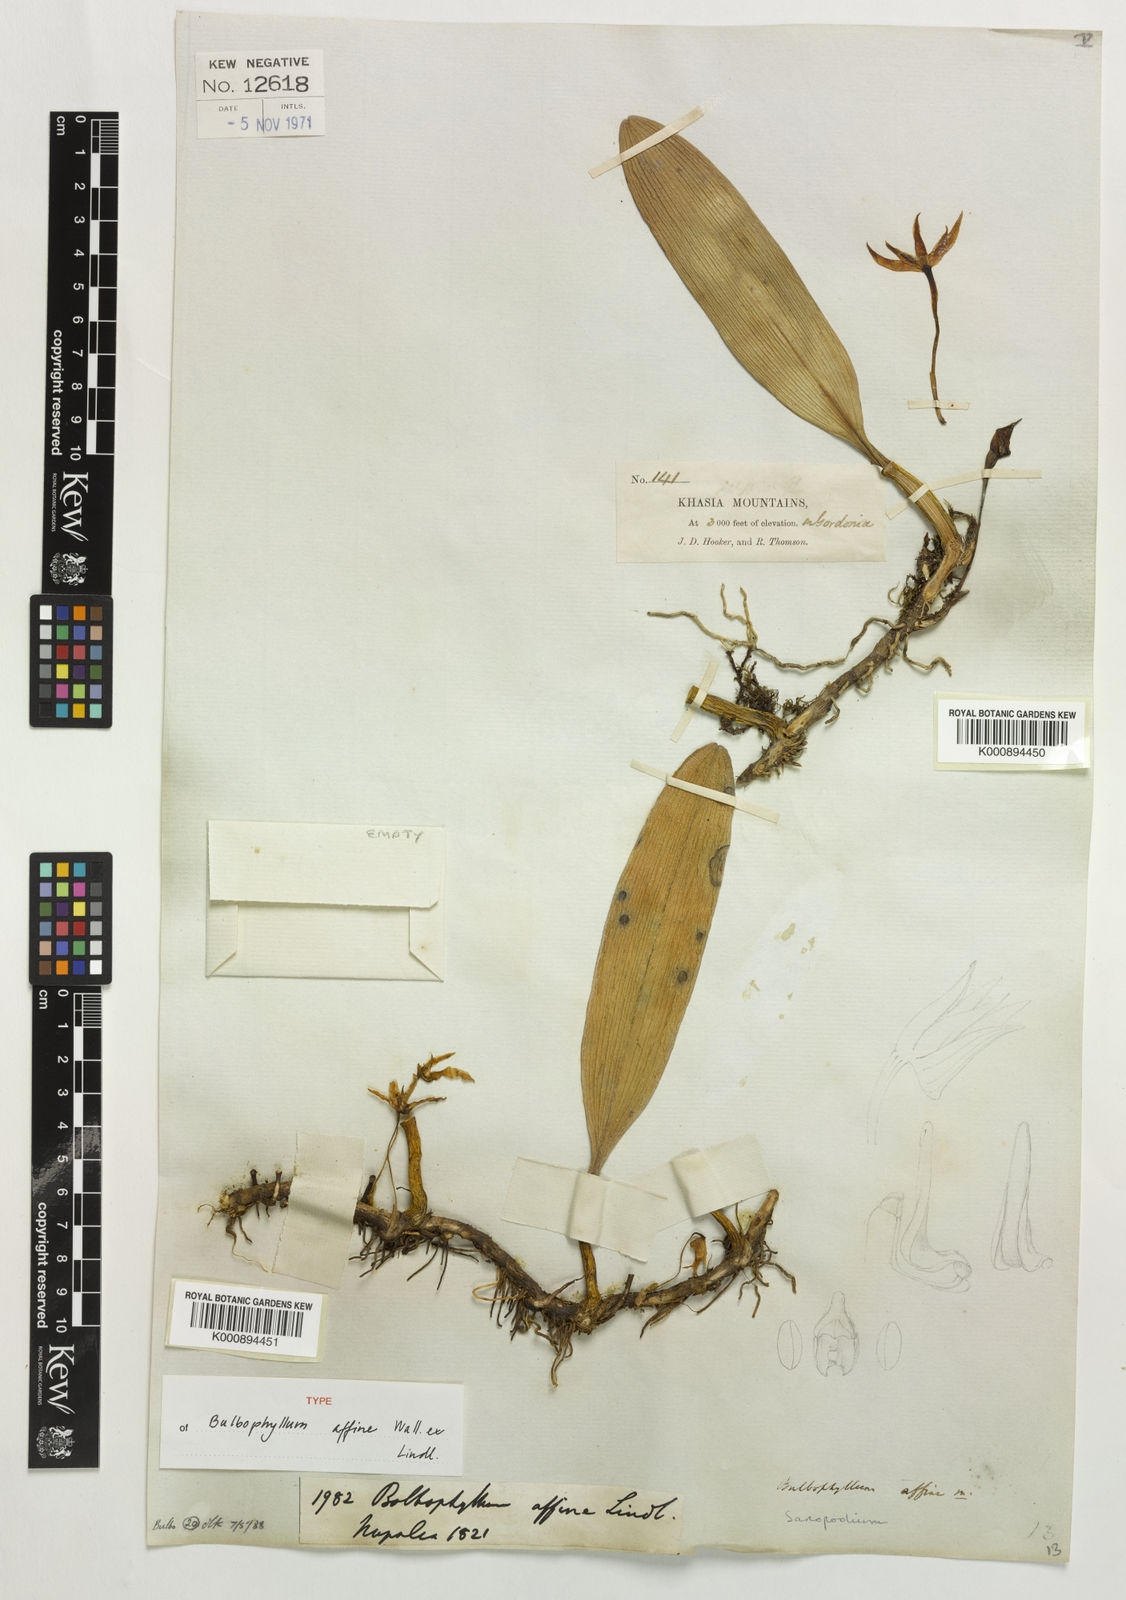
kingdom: Plantae
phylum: Tracheophyta
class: Liliopsida
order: Asparagales
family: Orchidaceae
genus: Bulbophyllum
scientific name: Bulbophyllum affine
